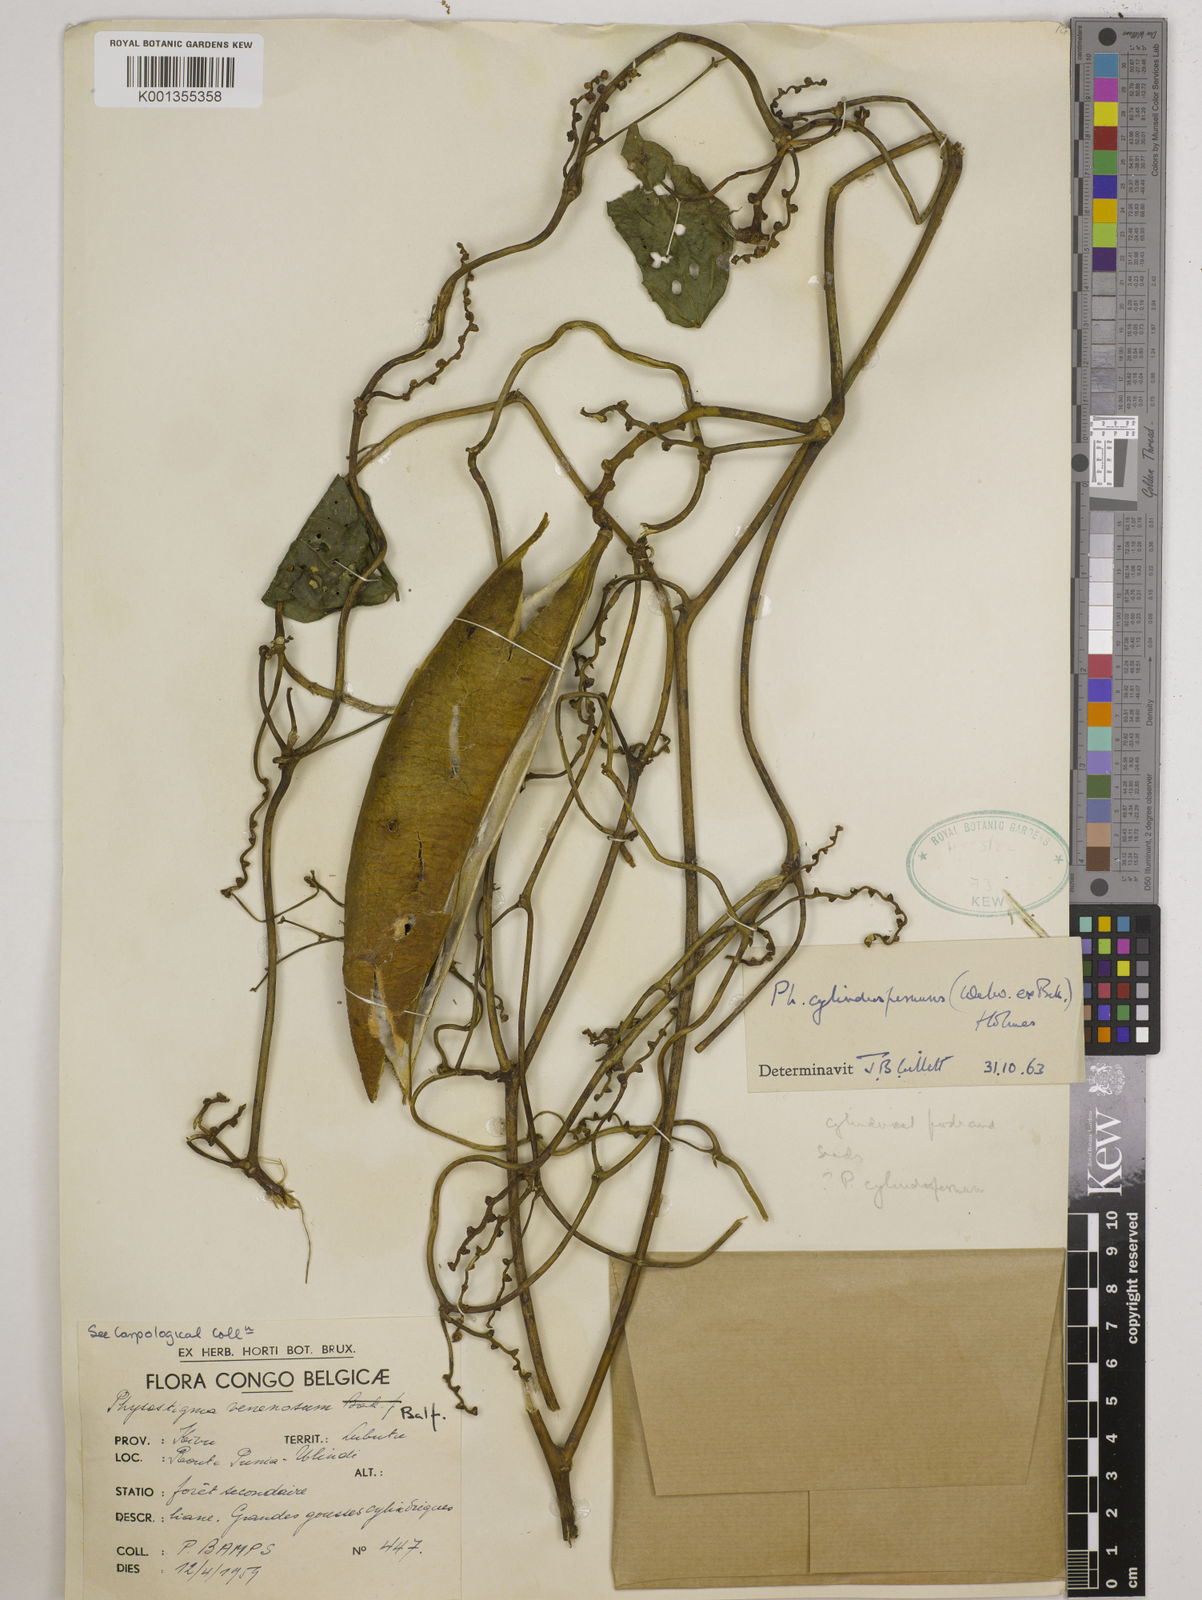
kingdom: Plantae
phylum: Tracheophyta
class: Magnoliopsida
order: Fabales
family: Fabaceae
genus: Physostigma
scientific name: Physostigma cylindrospermum
